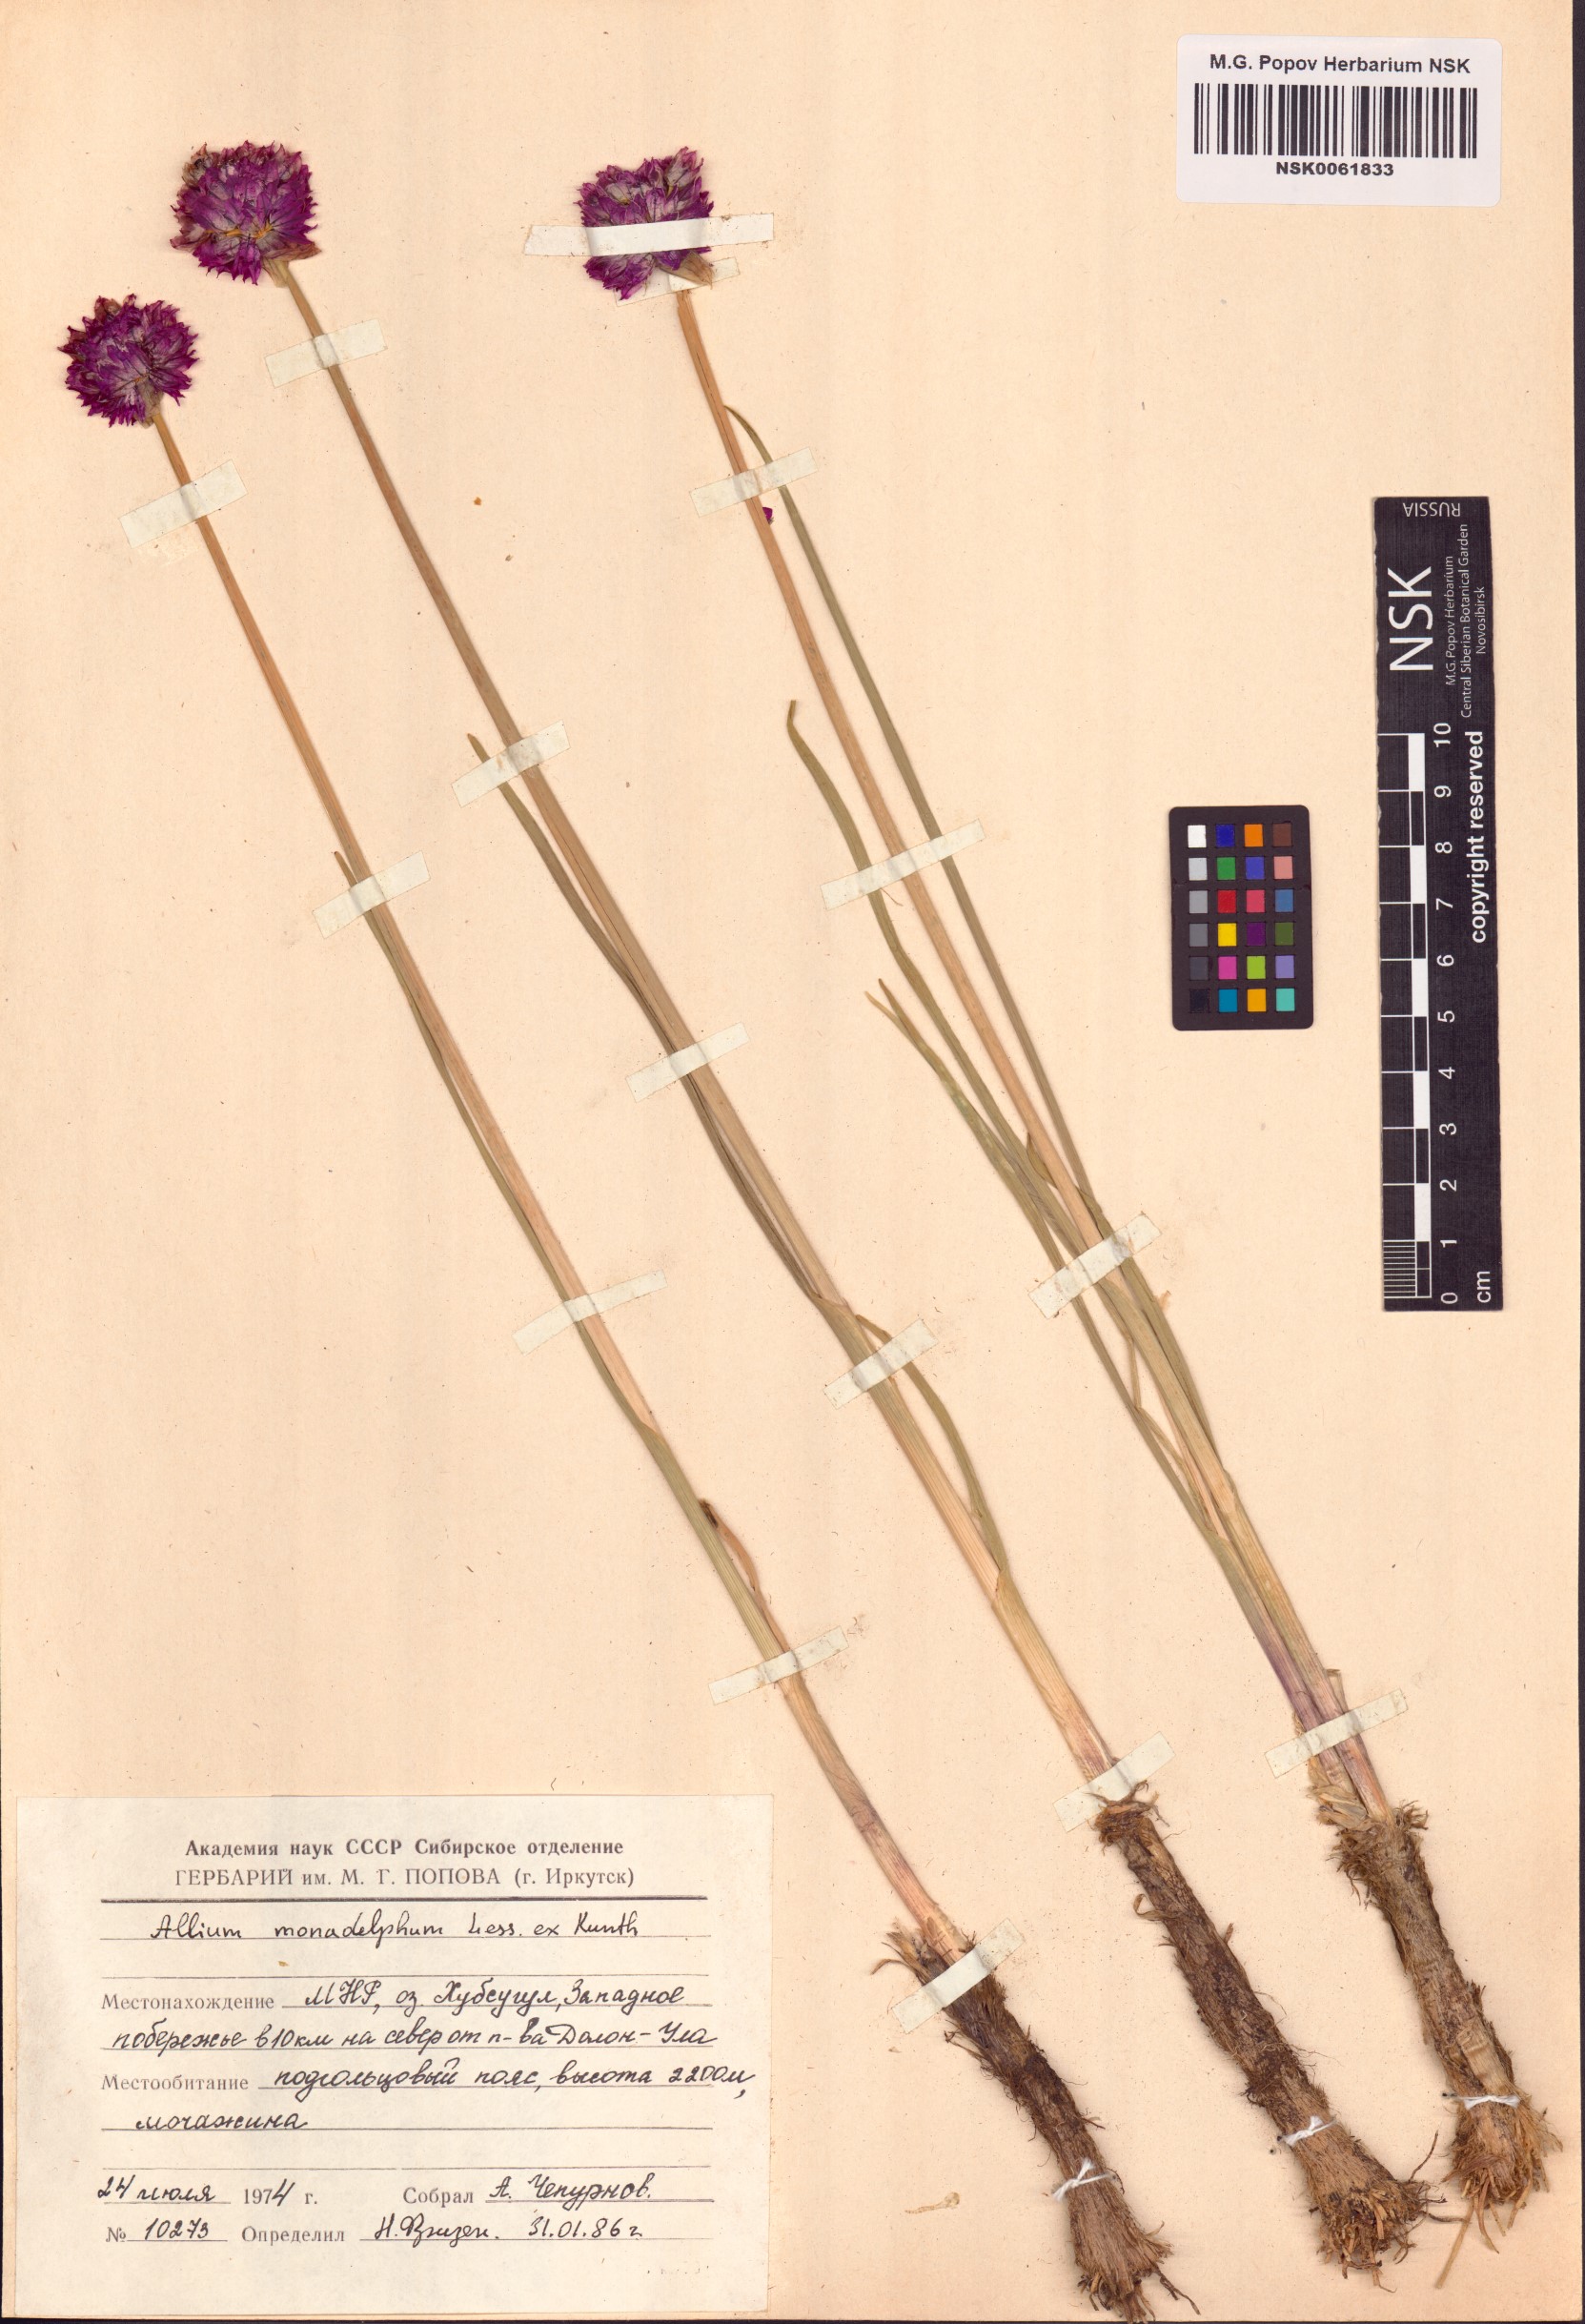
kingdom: Plantae
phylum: Tracheophyta
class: Liliopsida
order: Asparagales
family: Amaryllidaceae
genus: Allium
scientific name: Allium atrosanguineum
